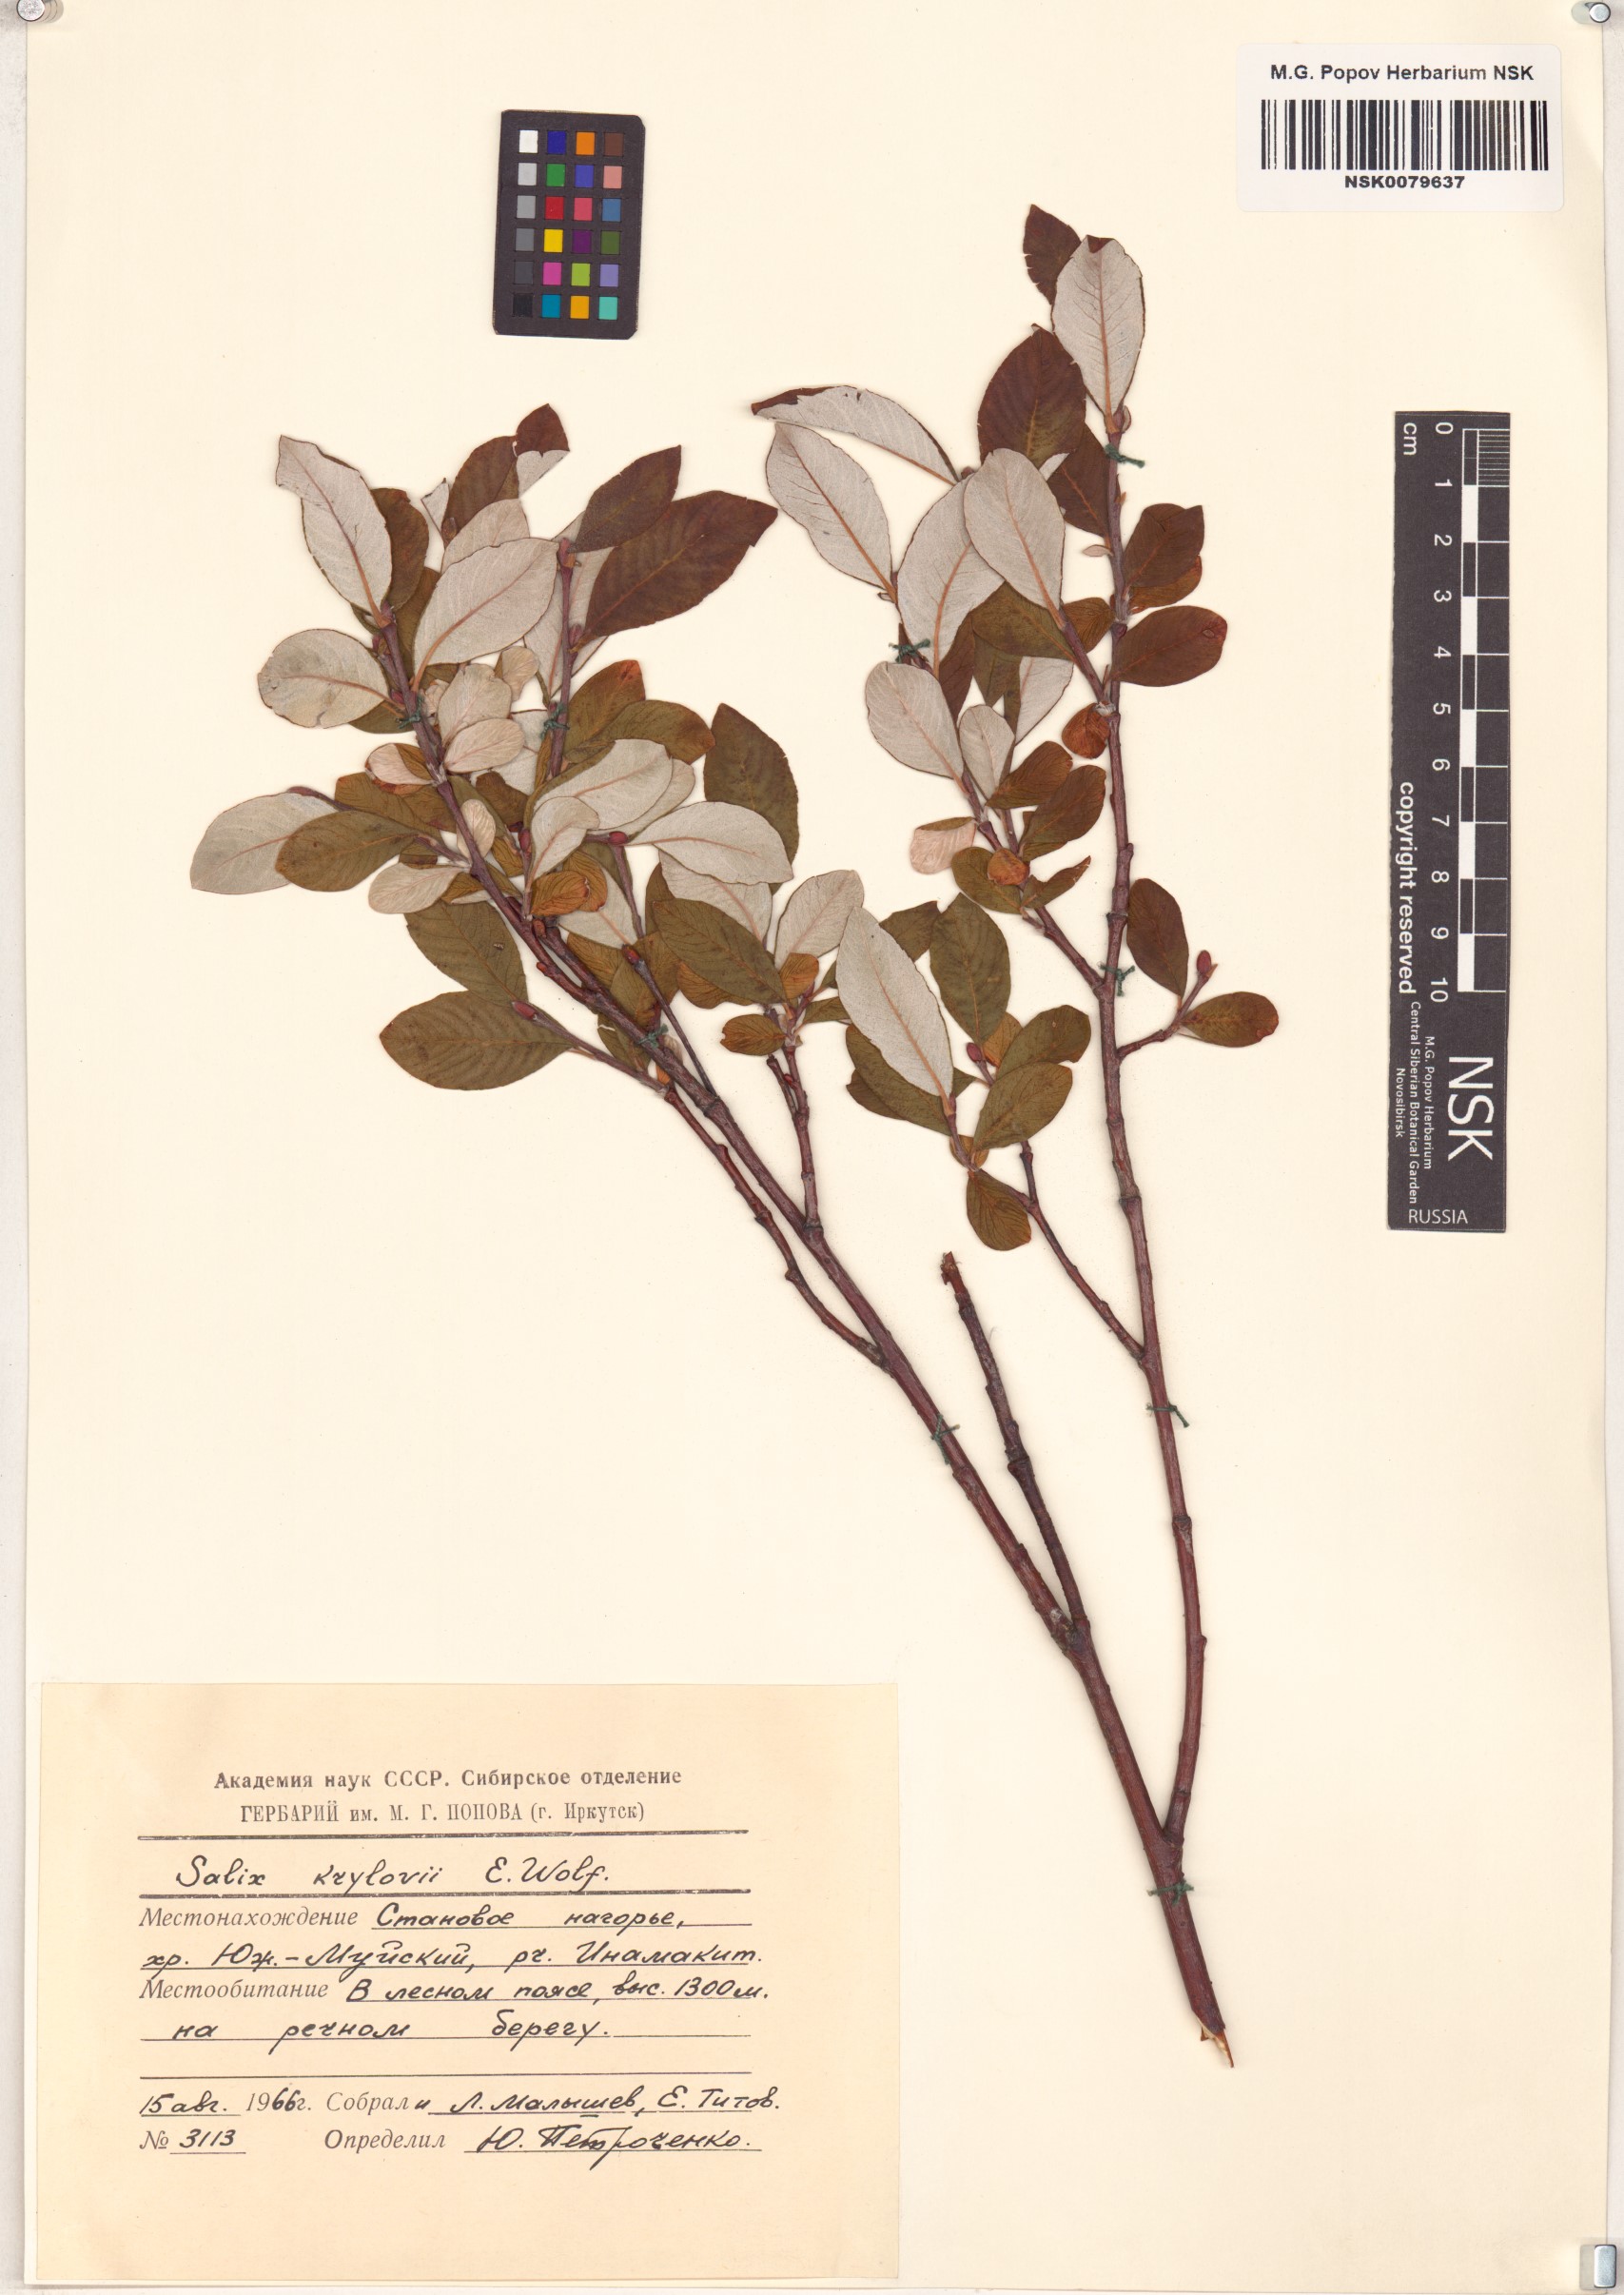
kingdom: Plantae
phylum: Tracheophyta
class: Magnoliopsida
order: Malpighiales
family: Salicaceae
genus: Salix
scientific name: Salix krylovii
